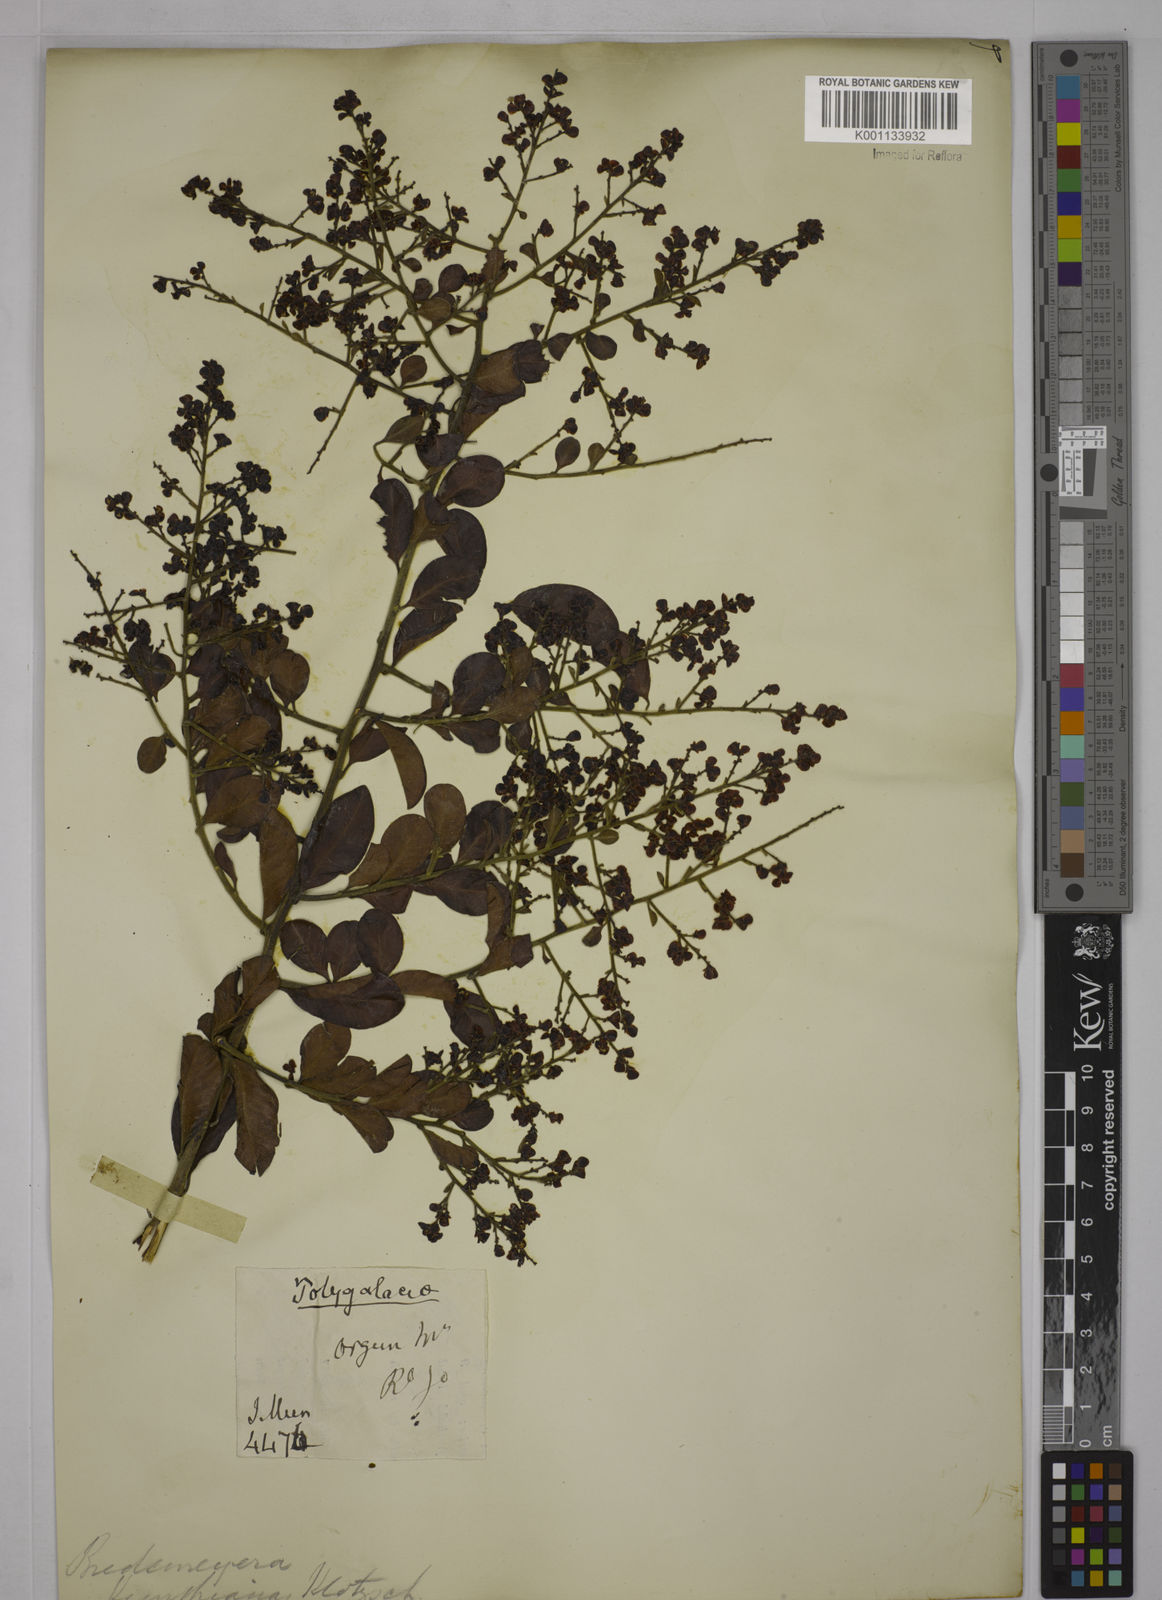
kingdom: Plantae
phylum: Tracheophyta
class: Magnoliopsida
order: Fabales
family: Polygalaceae
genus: Bredemeyera
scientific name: Bredemeyera hebeclada
